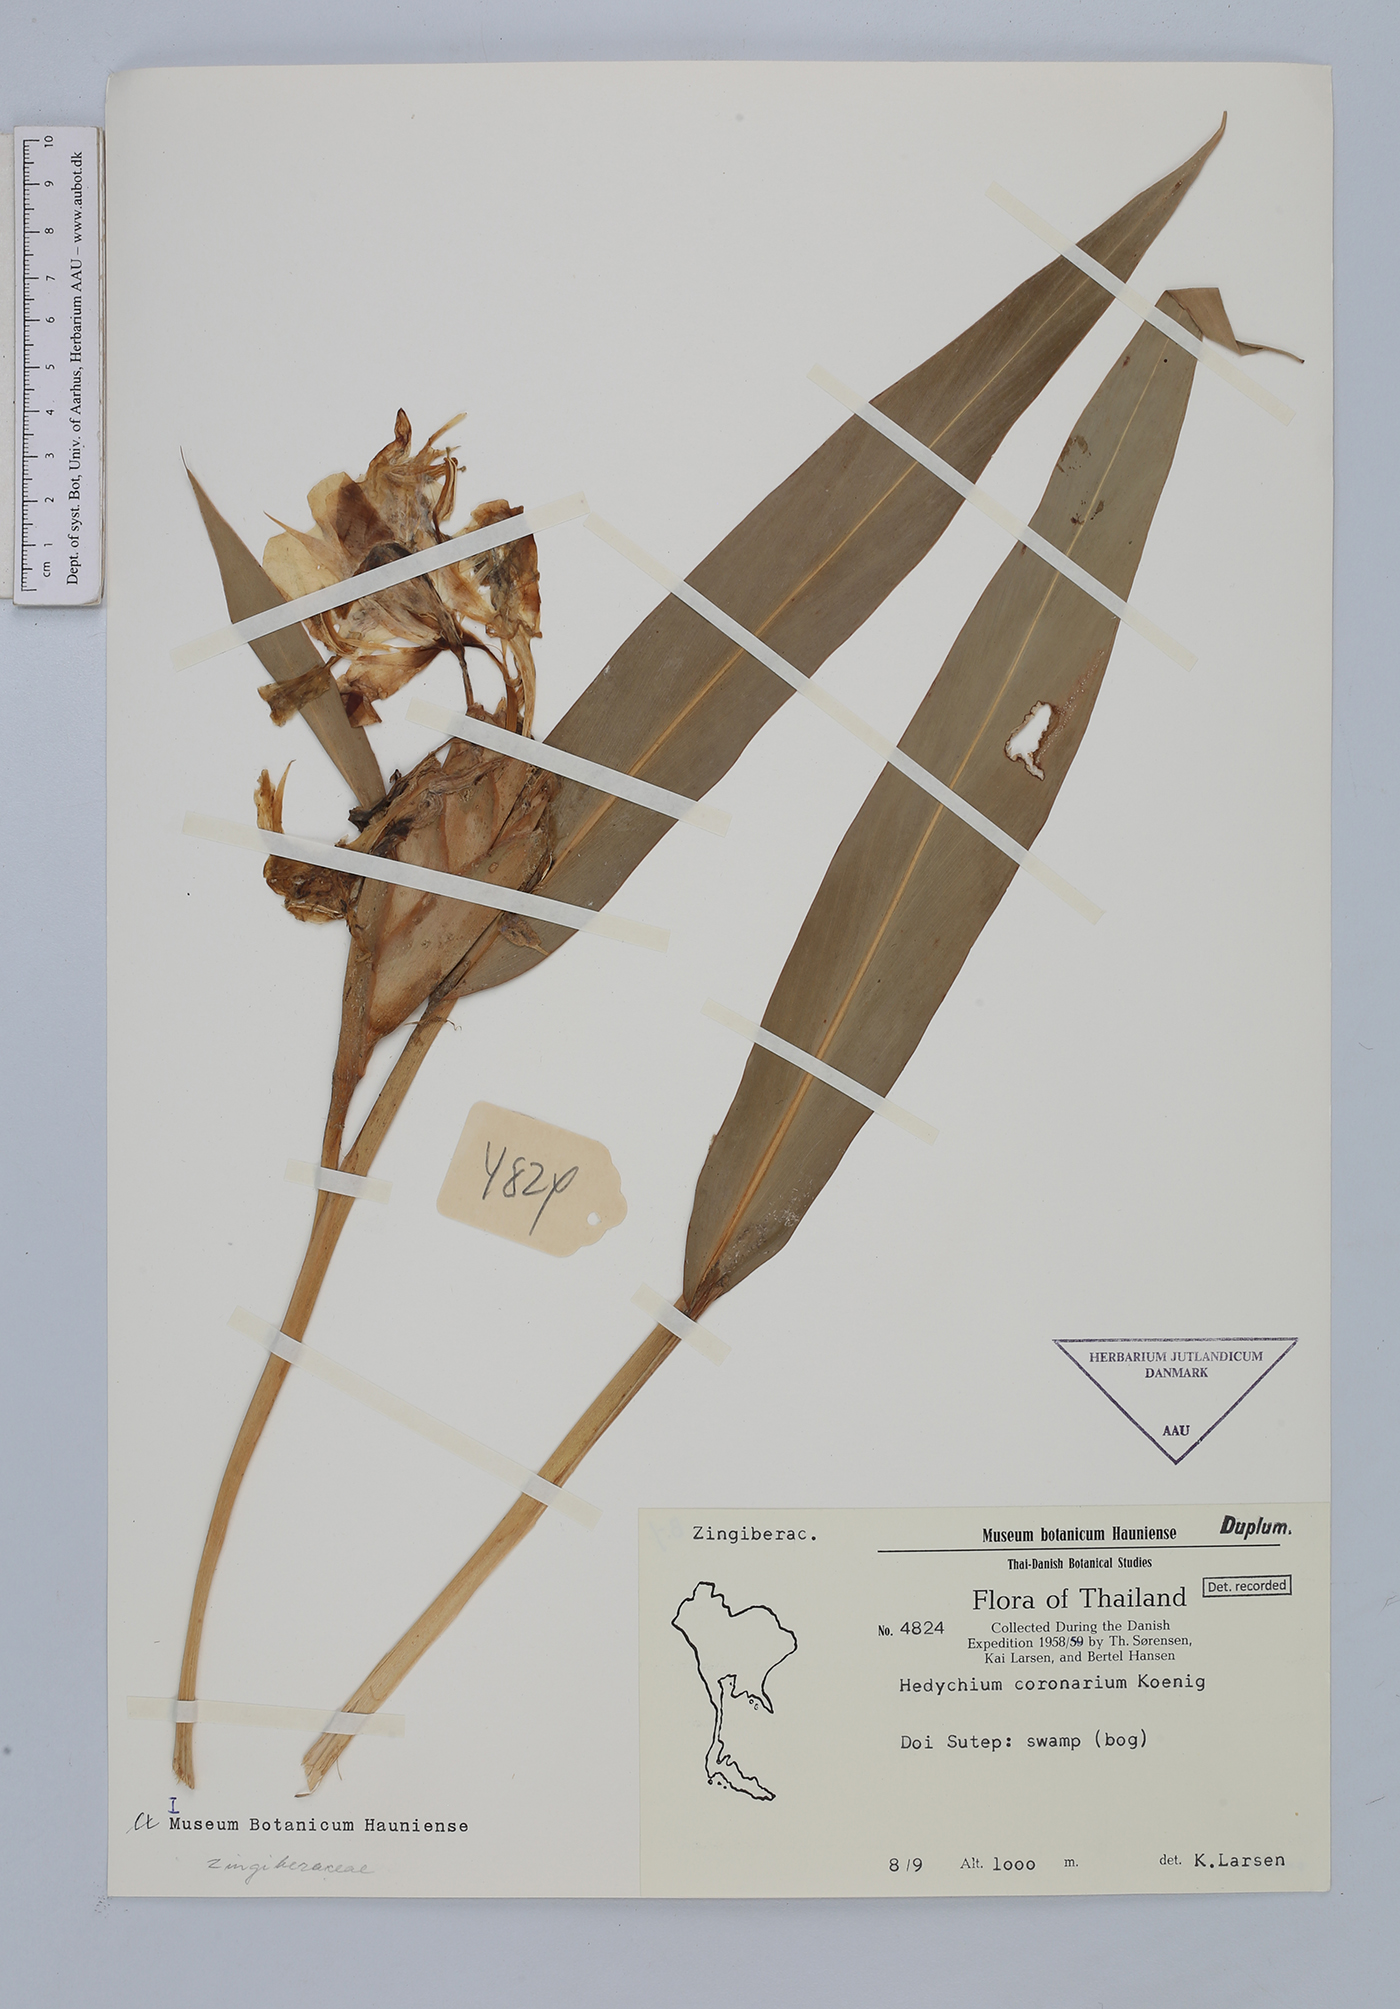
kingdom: Plantae
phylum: Tracheophyta
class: Liliopsida
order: Zingiberales
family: Zingiberaceae
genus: Hedychium
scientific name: Hedychium coronarium
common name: White garland-lily
